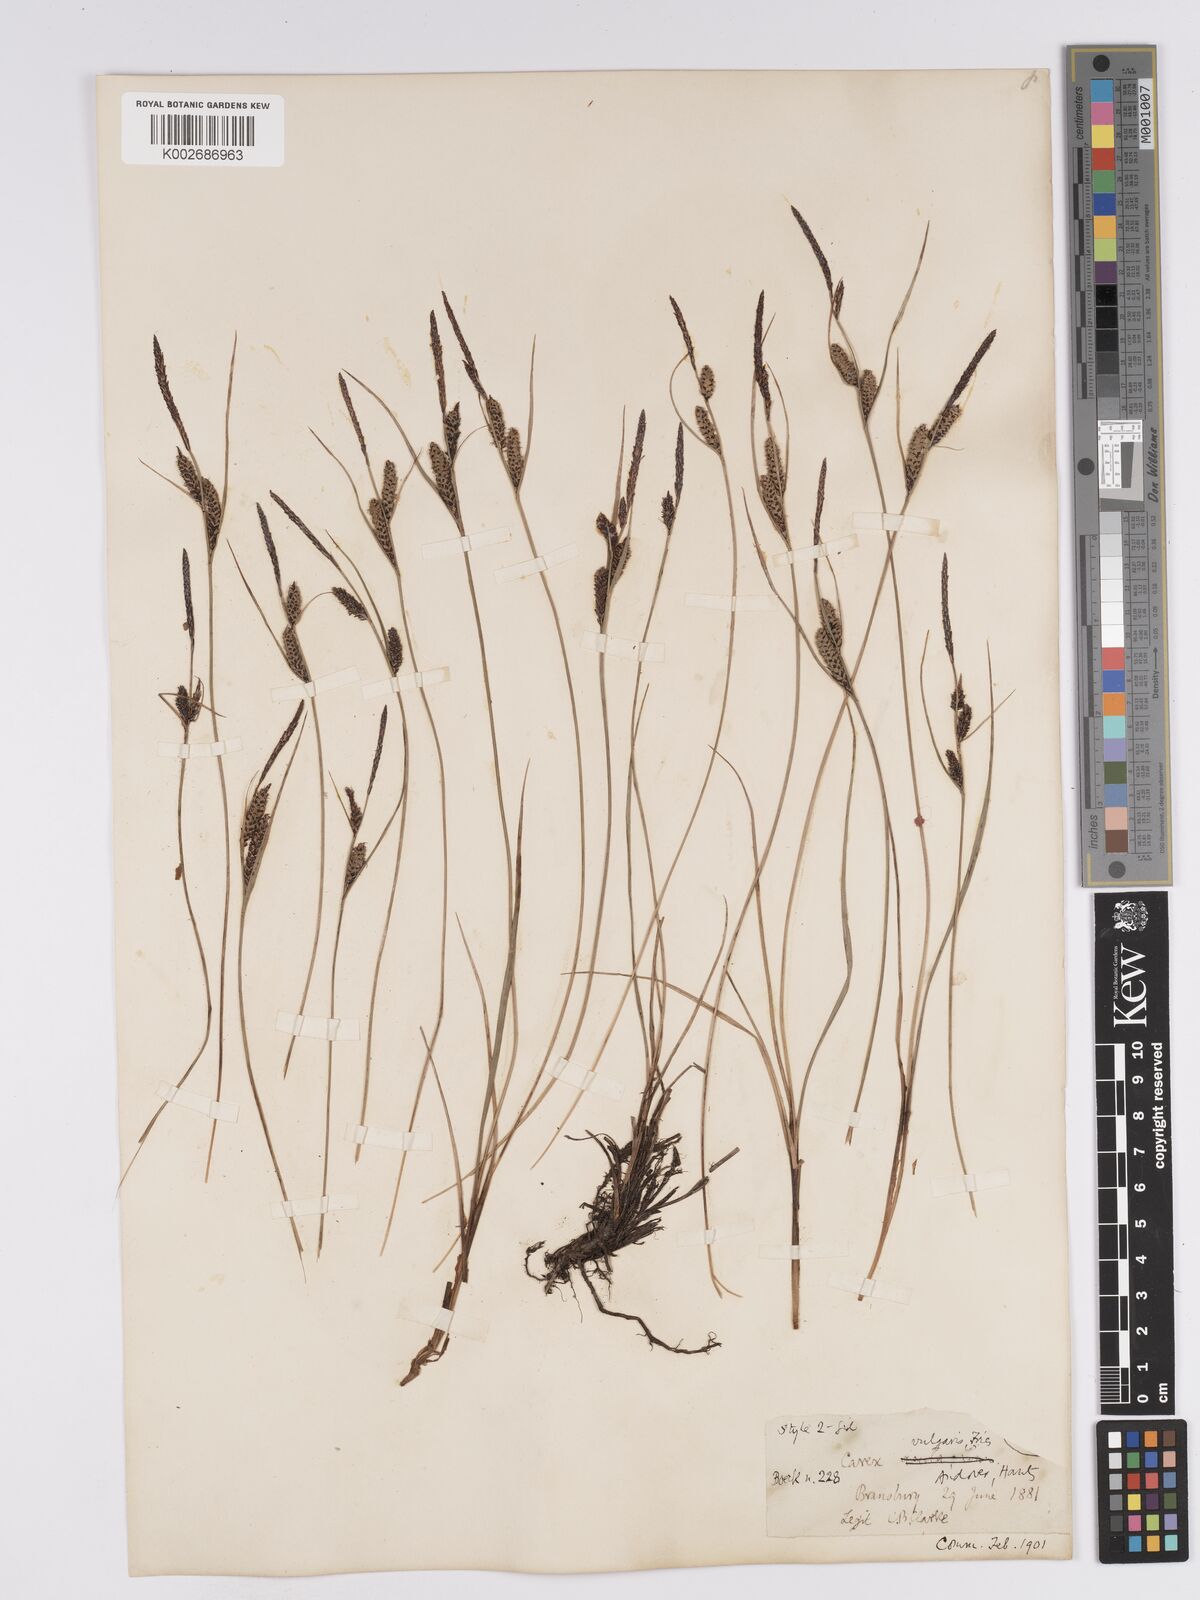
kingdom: Plantae
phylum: Tracheophyta
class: Liliopsida
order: Poales
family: Cyperaceae
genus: Carex
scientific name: Carex nigra
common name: Common sedge
